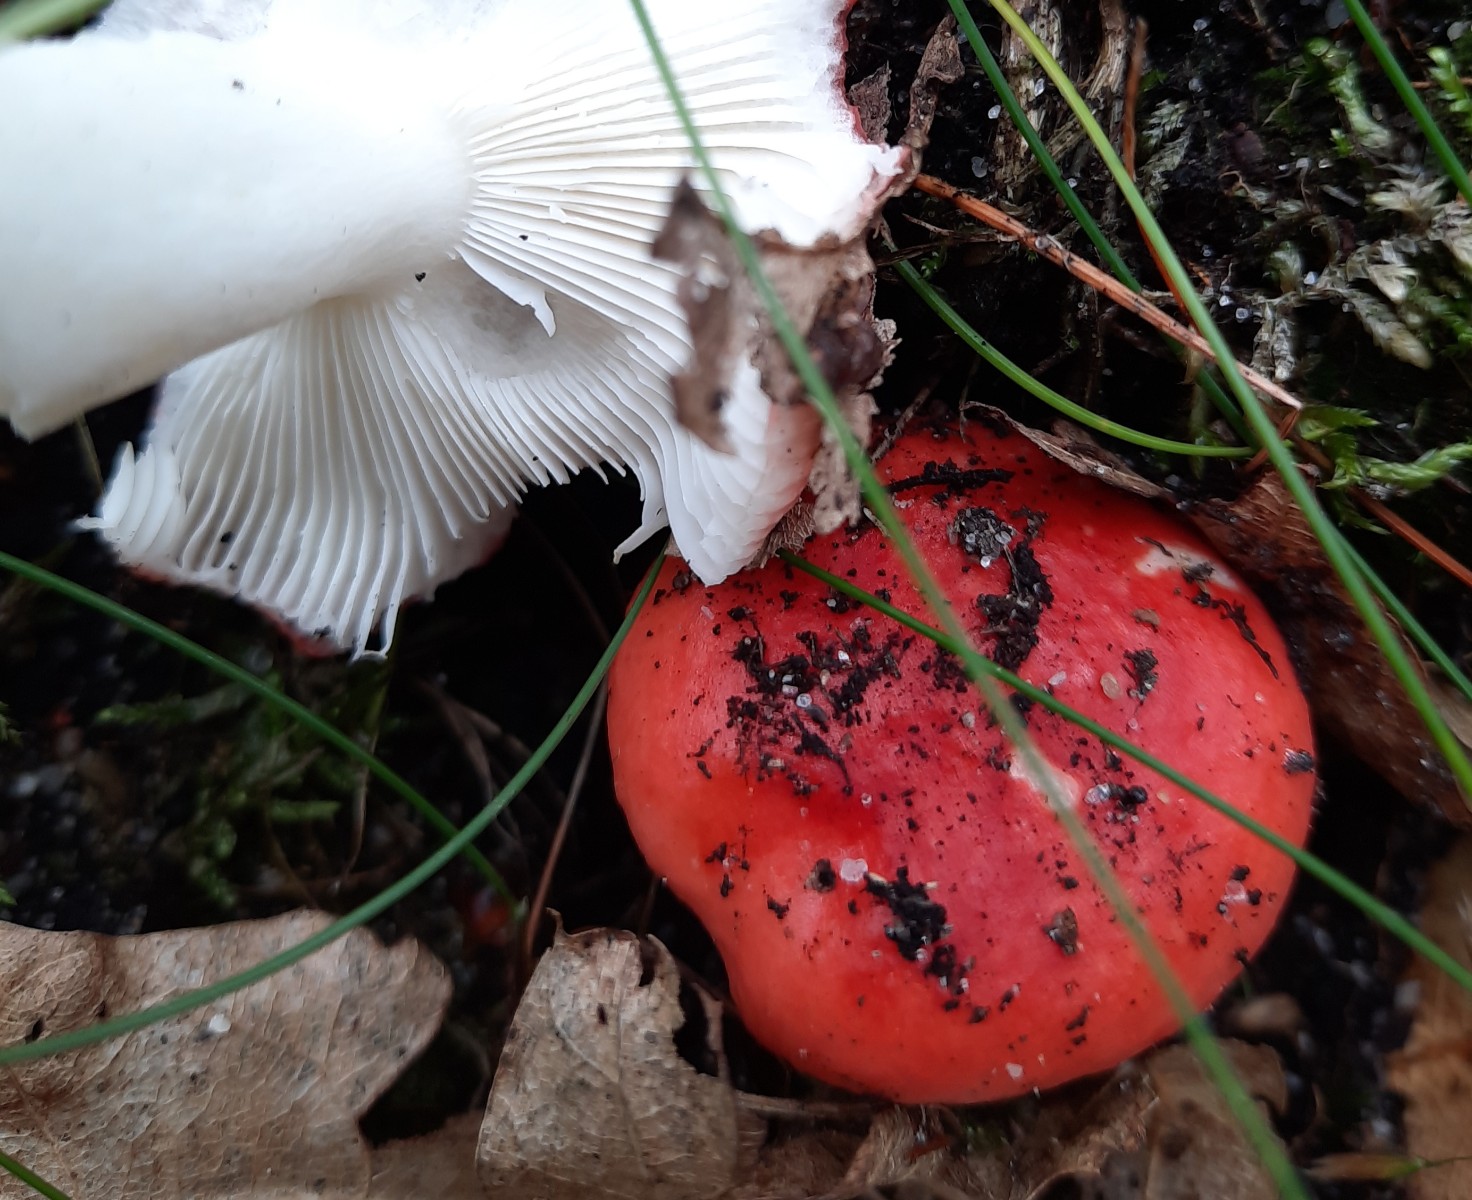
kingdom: Fungi
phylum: Basidiomycota
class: Agaricomycetes
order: Russulales
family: Russulaceae
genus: Russula
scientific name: Russula silvestris
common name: mellemstor gift-skørhat
